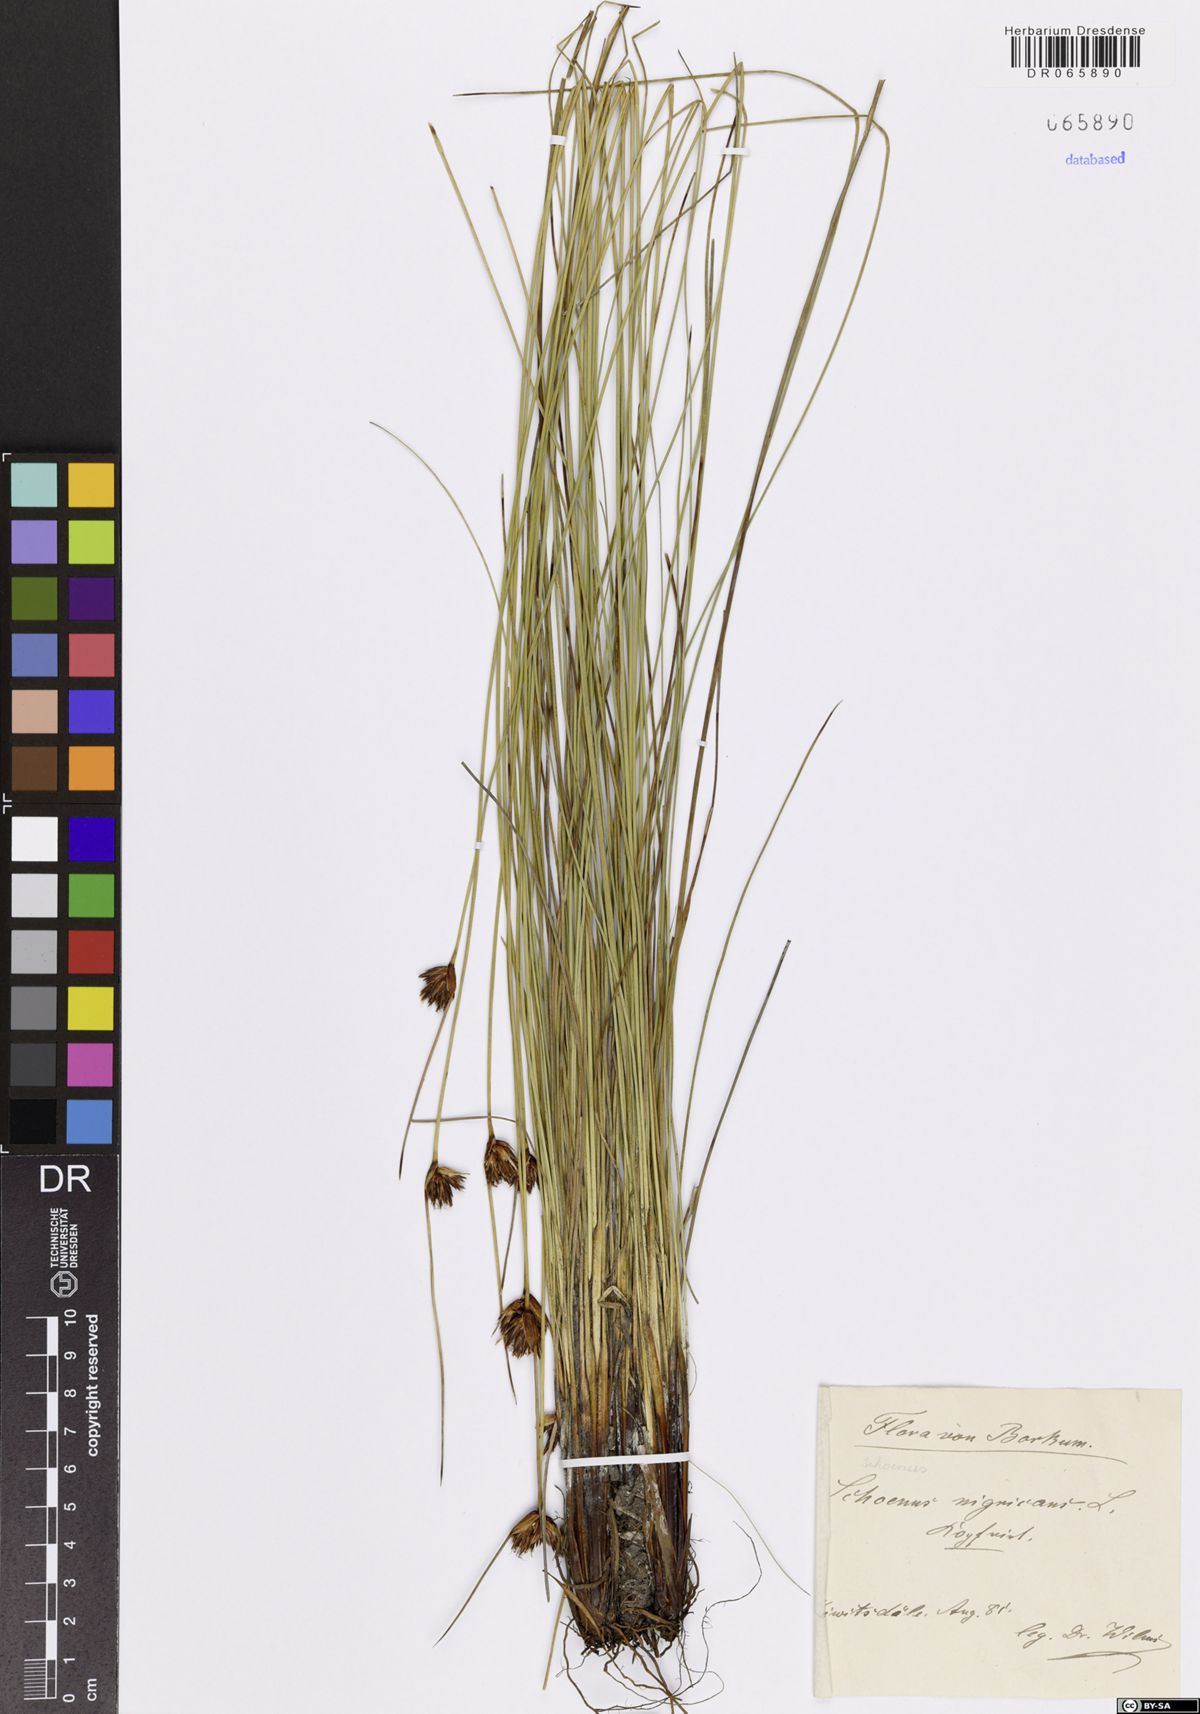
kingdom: Plantae
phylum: Tracheophyta
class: Liliopsida
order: Poales
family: Cyperaceae
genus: Schoenus
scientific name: Schoenus nigricans
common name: Black bog-rush
